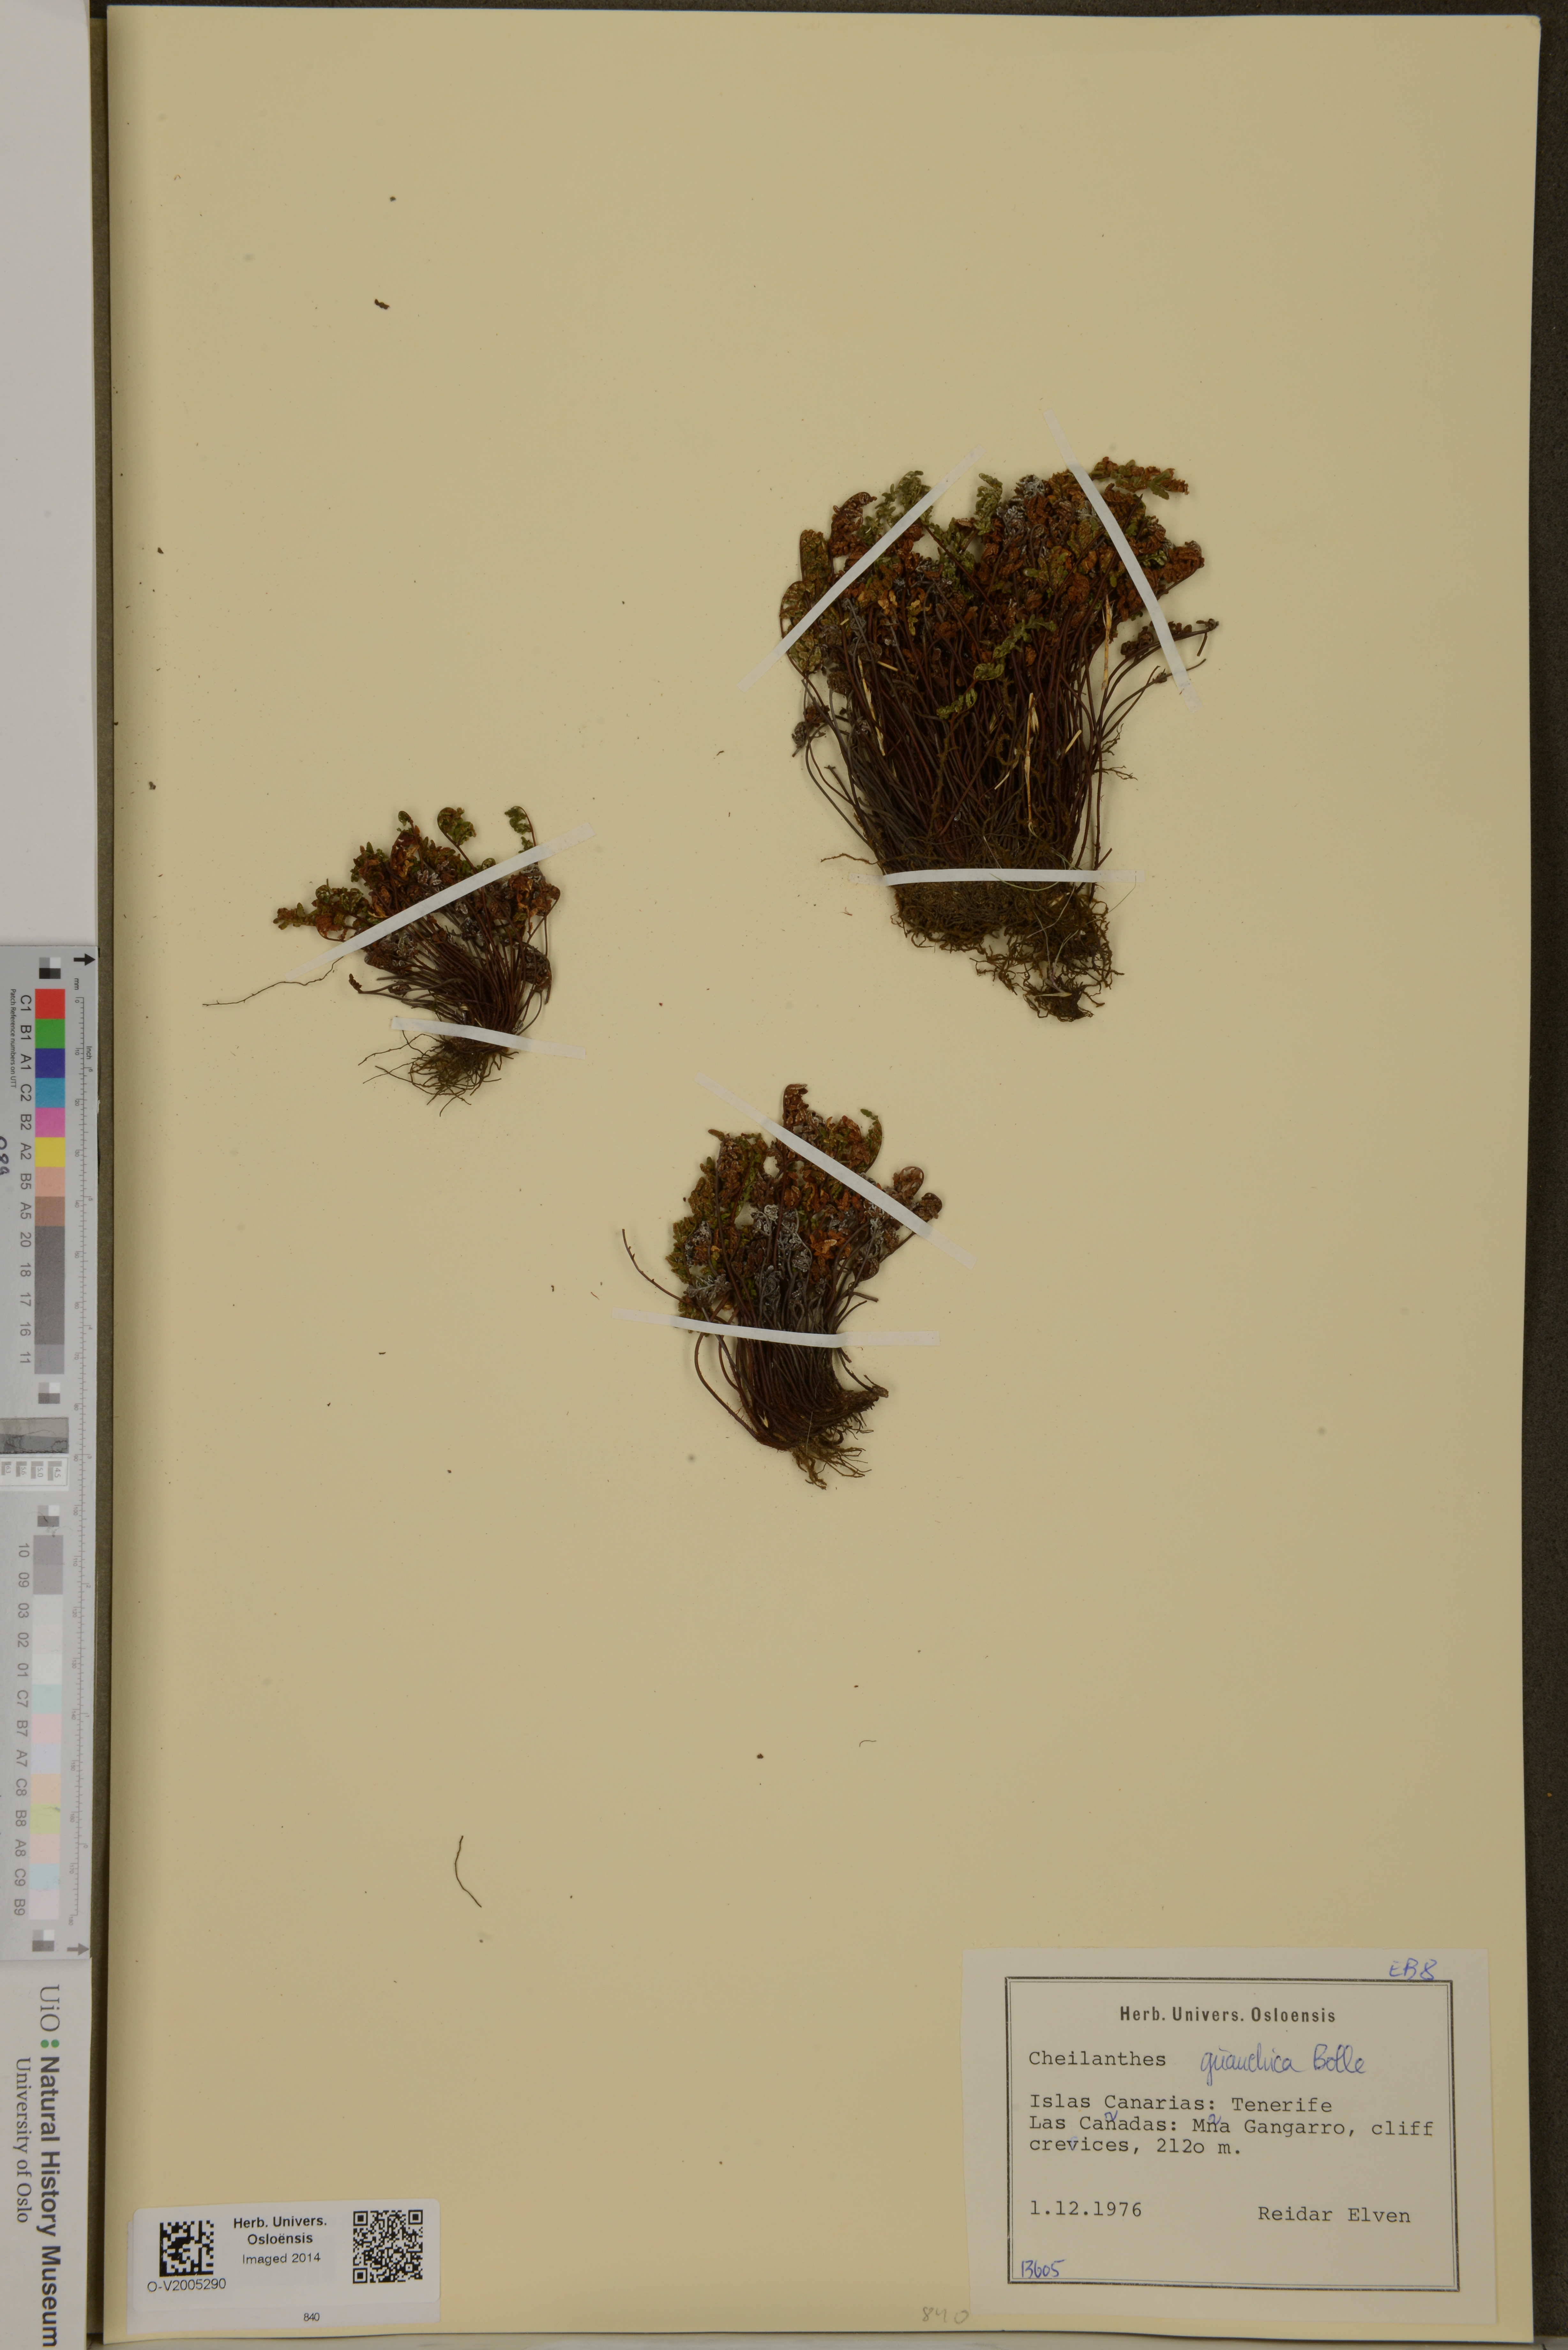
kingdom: Plantae
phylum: Tracheophyta
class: Polypodiopsida
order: Polypodiales
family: Pteridaceae
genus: Oeosporangium
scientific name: Oeosporangium guanchicum
